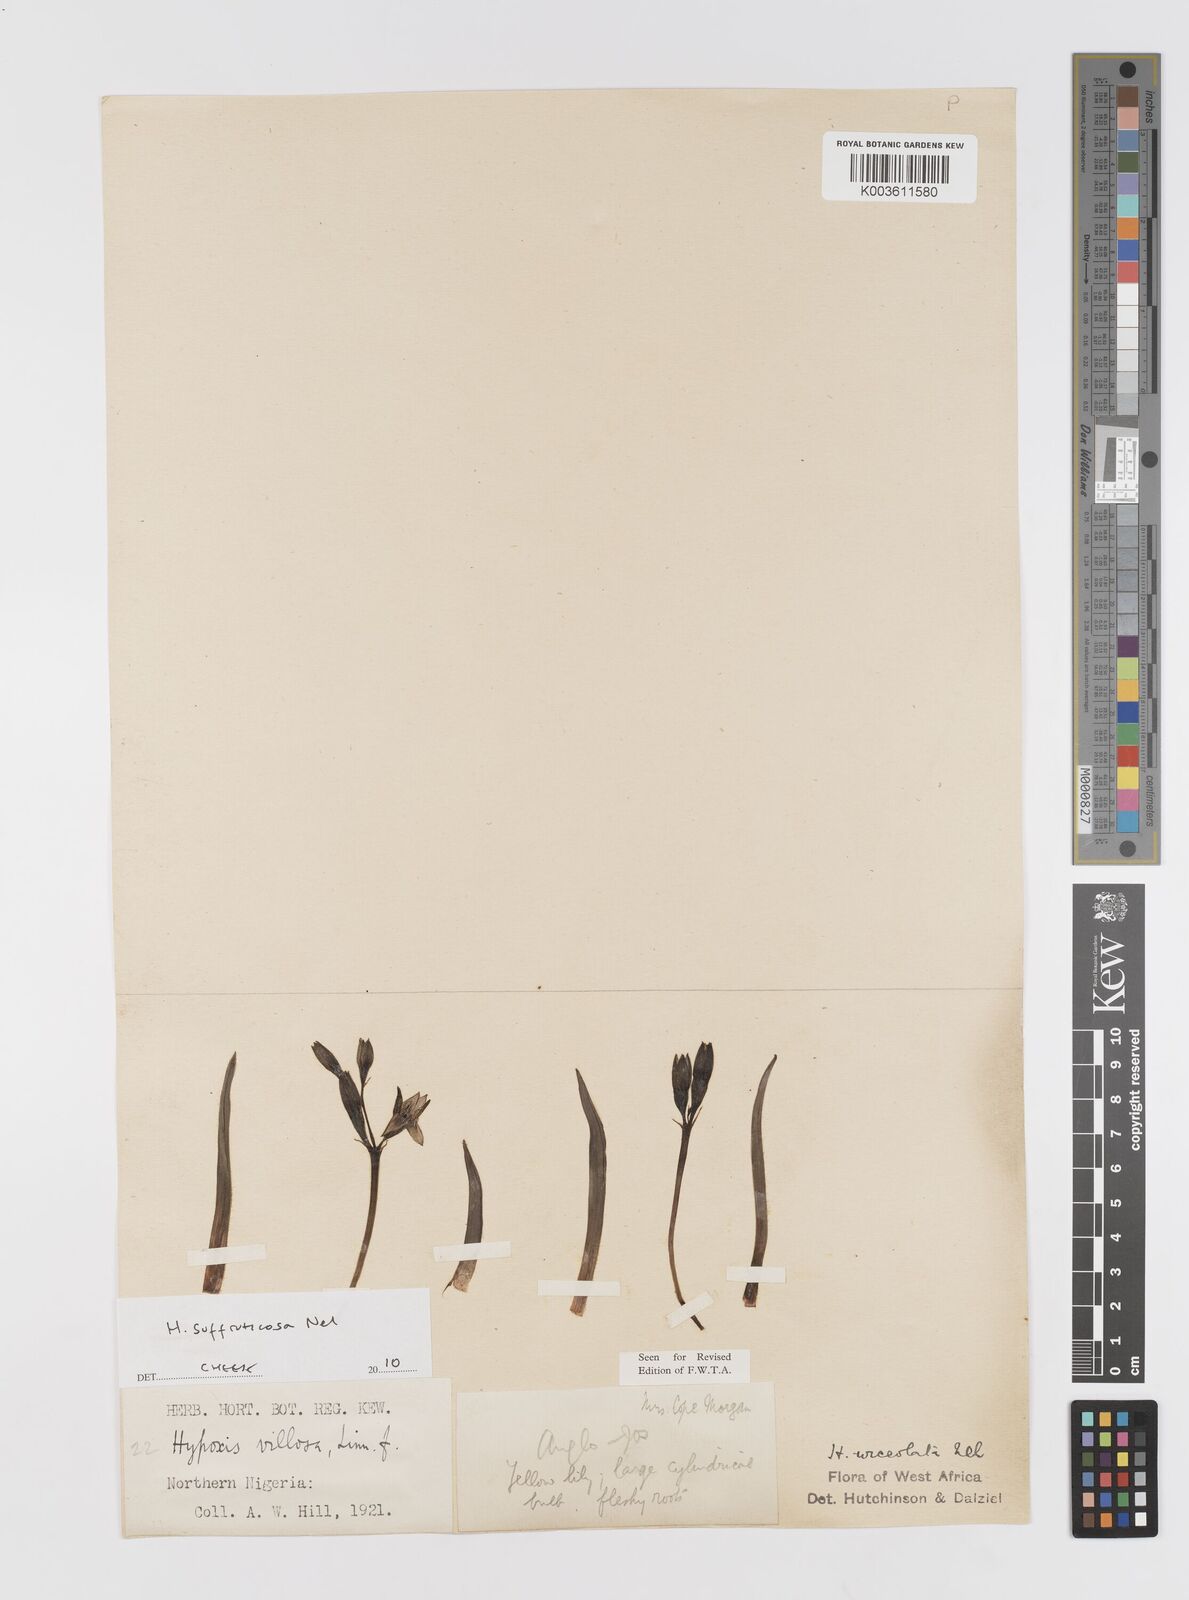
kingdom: Plantae
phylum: Tracheophyta
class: Liliopsida
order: Asparagales
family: Hypoxidaceae
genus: Hypoxis
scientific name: Hypoxis suffruticosa
